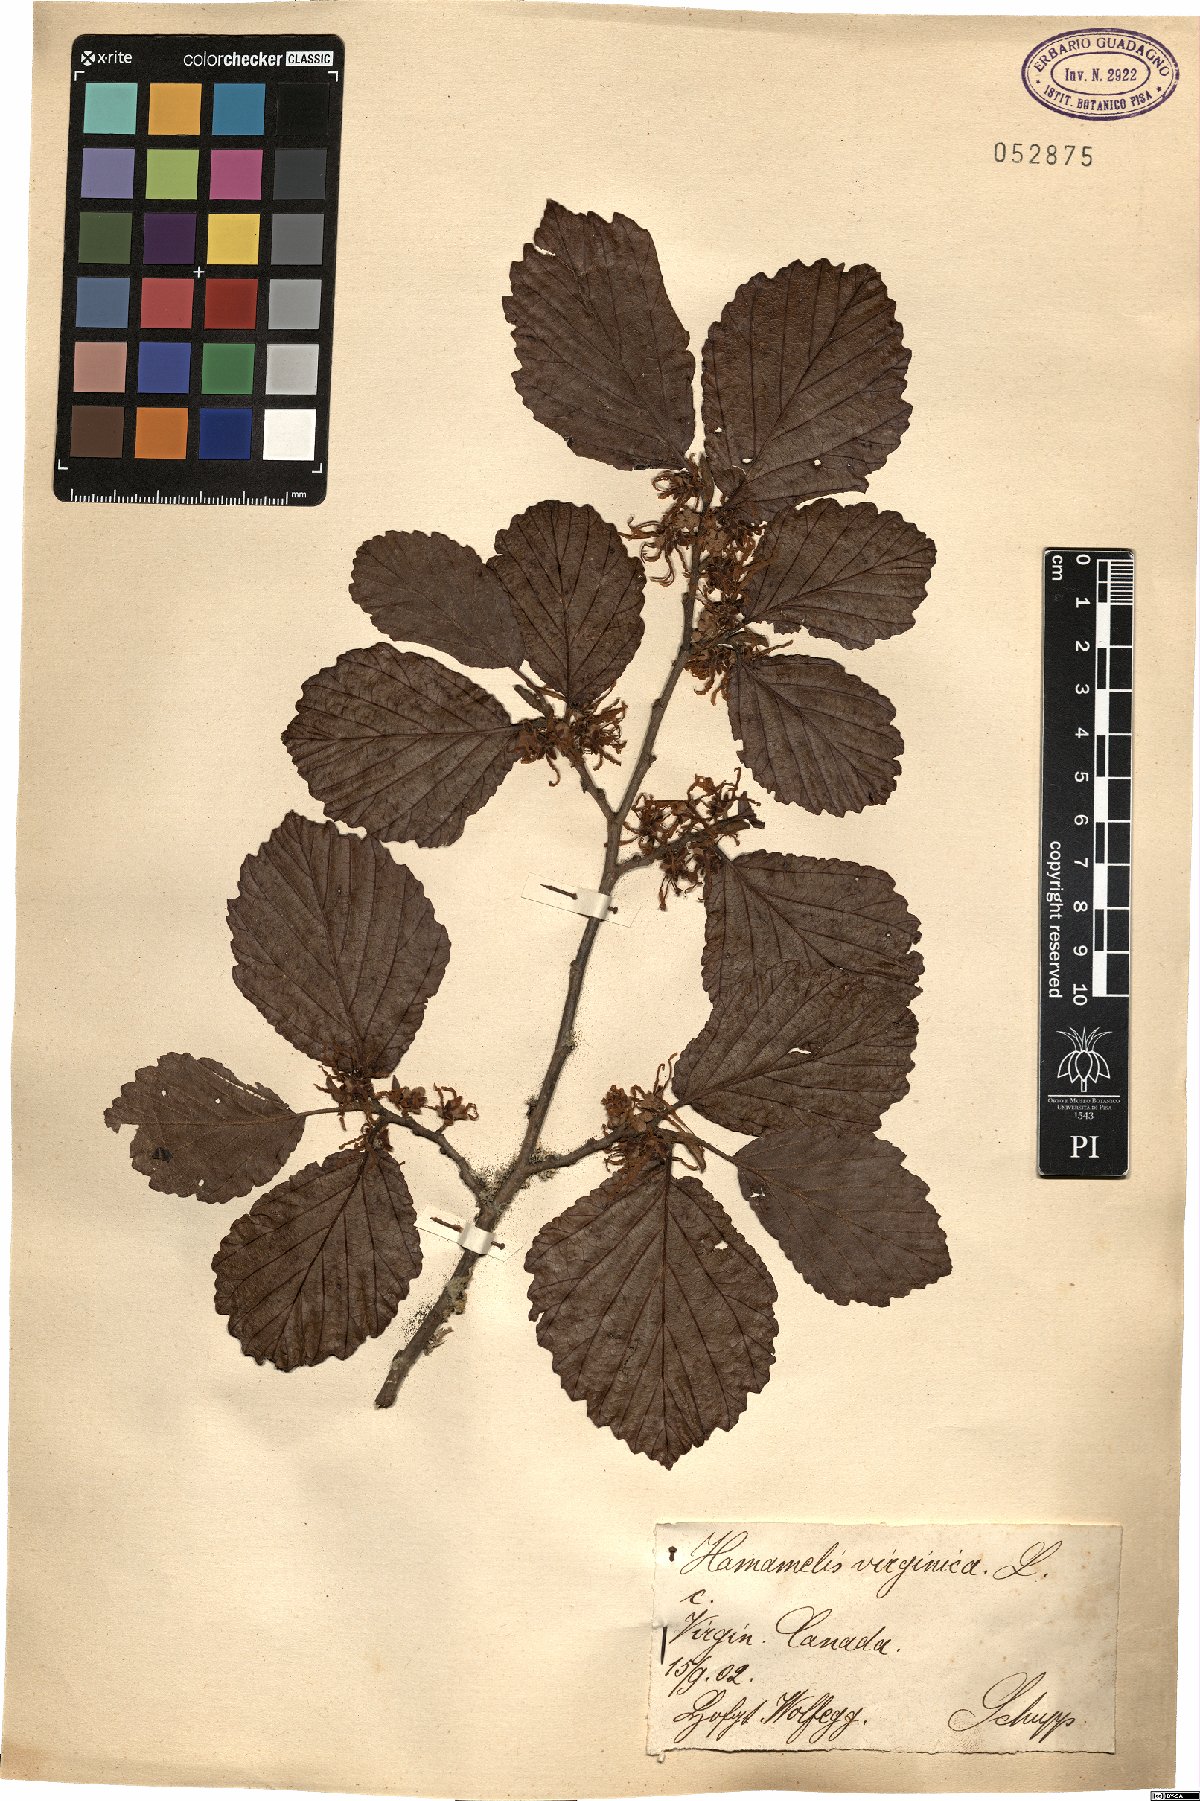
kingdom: Plantae
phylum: Tracheophyta
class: Magnoliopsida
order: Saxifragales
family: Hamamelidaceae
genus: Hamamelis
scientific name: Hamamelis virginiana
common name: Witch-hazel
